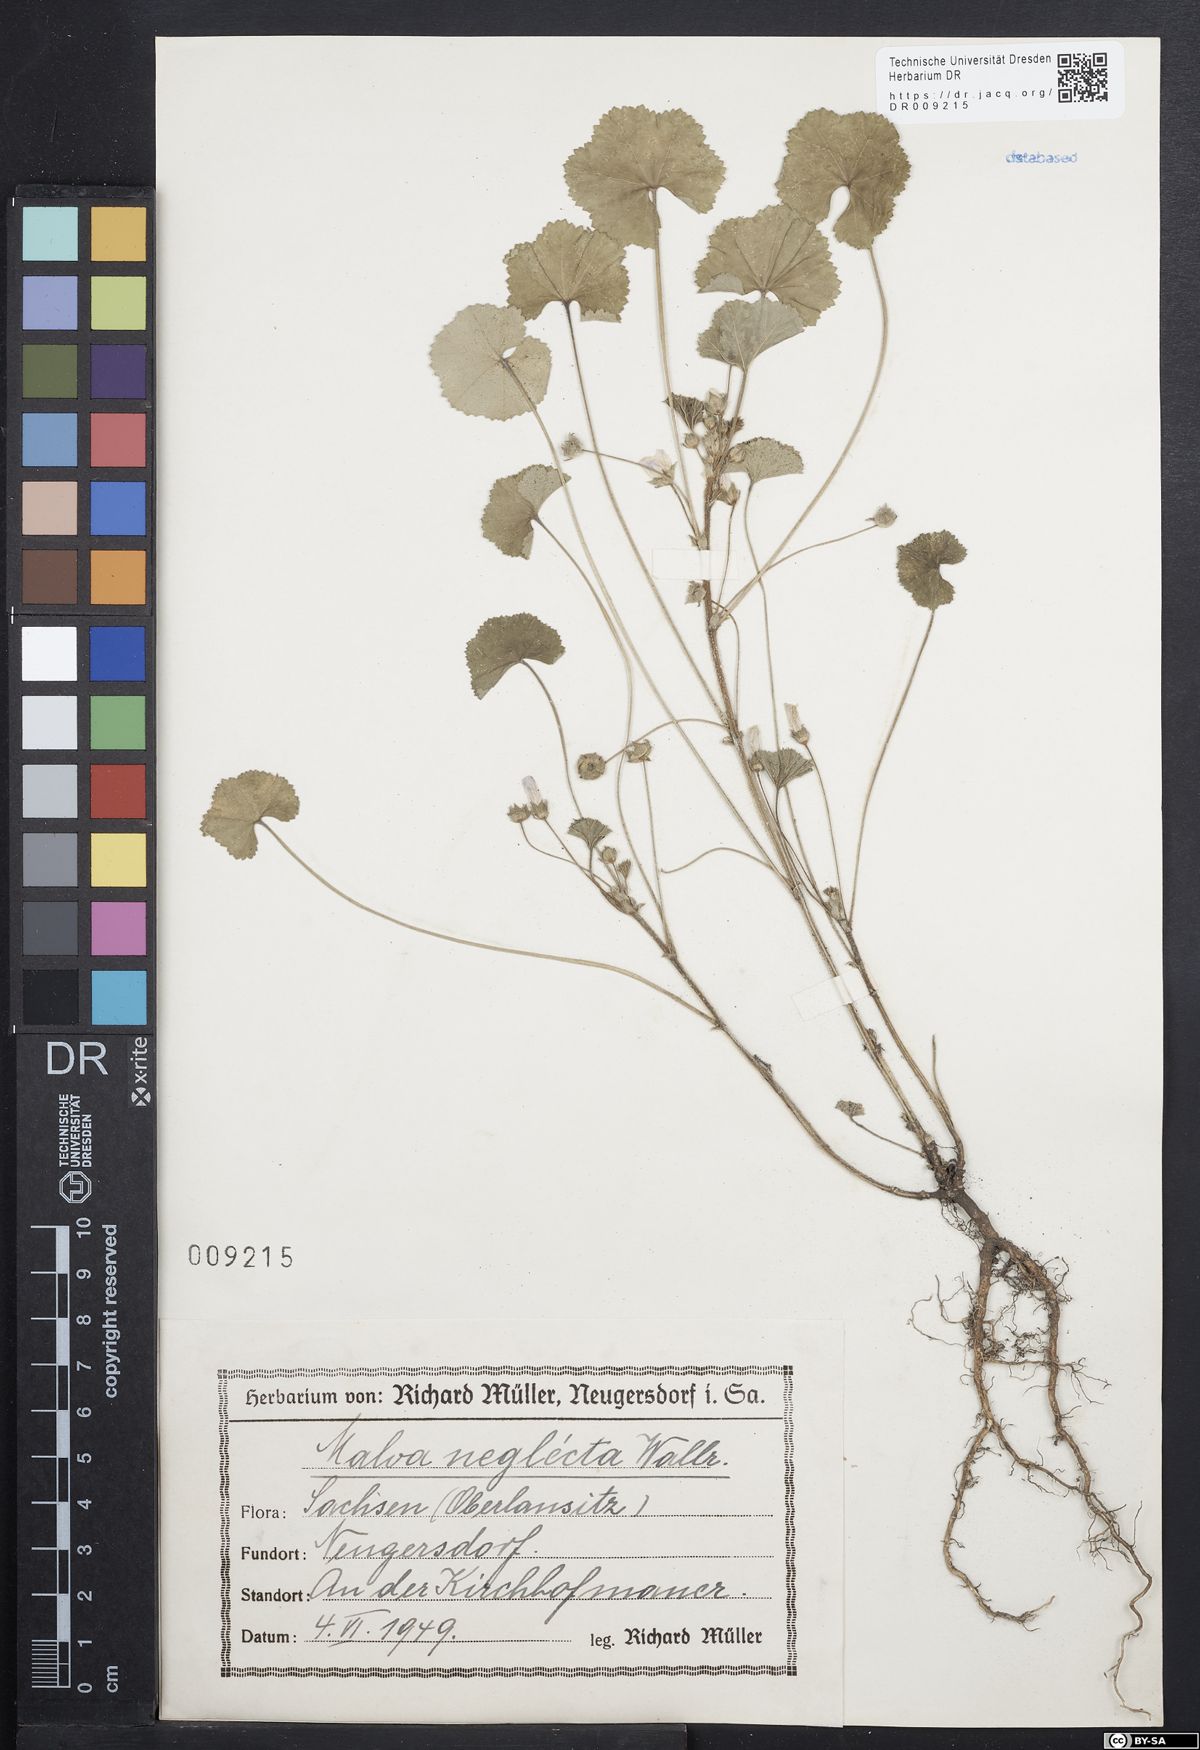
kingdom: Plantae
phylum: Tracheophyta
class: Magnoliopsida
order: Malvales
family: Malvaceae
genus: Malva
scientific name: Malva neglecta
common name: Common mallow
